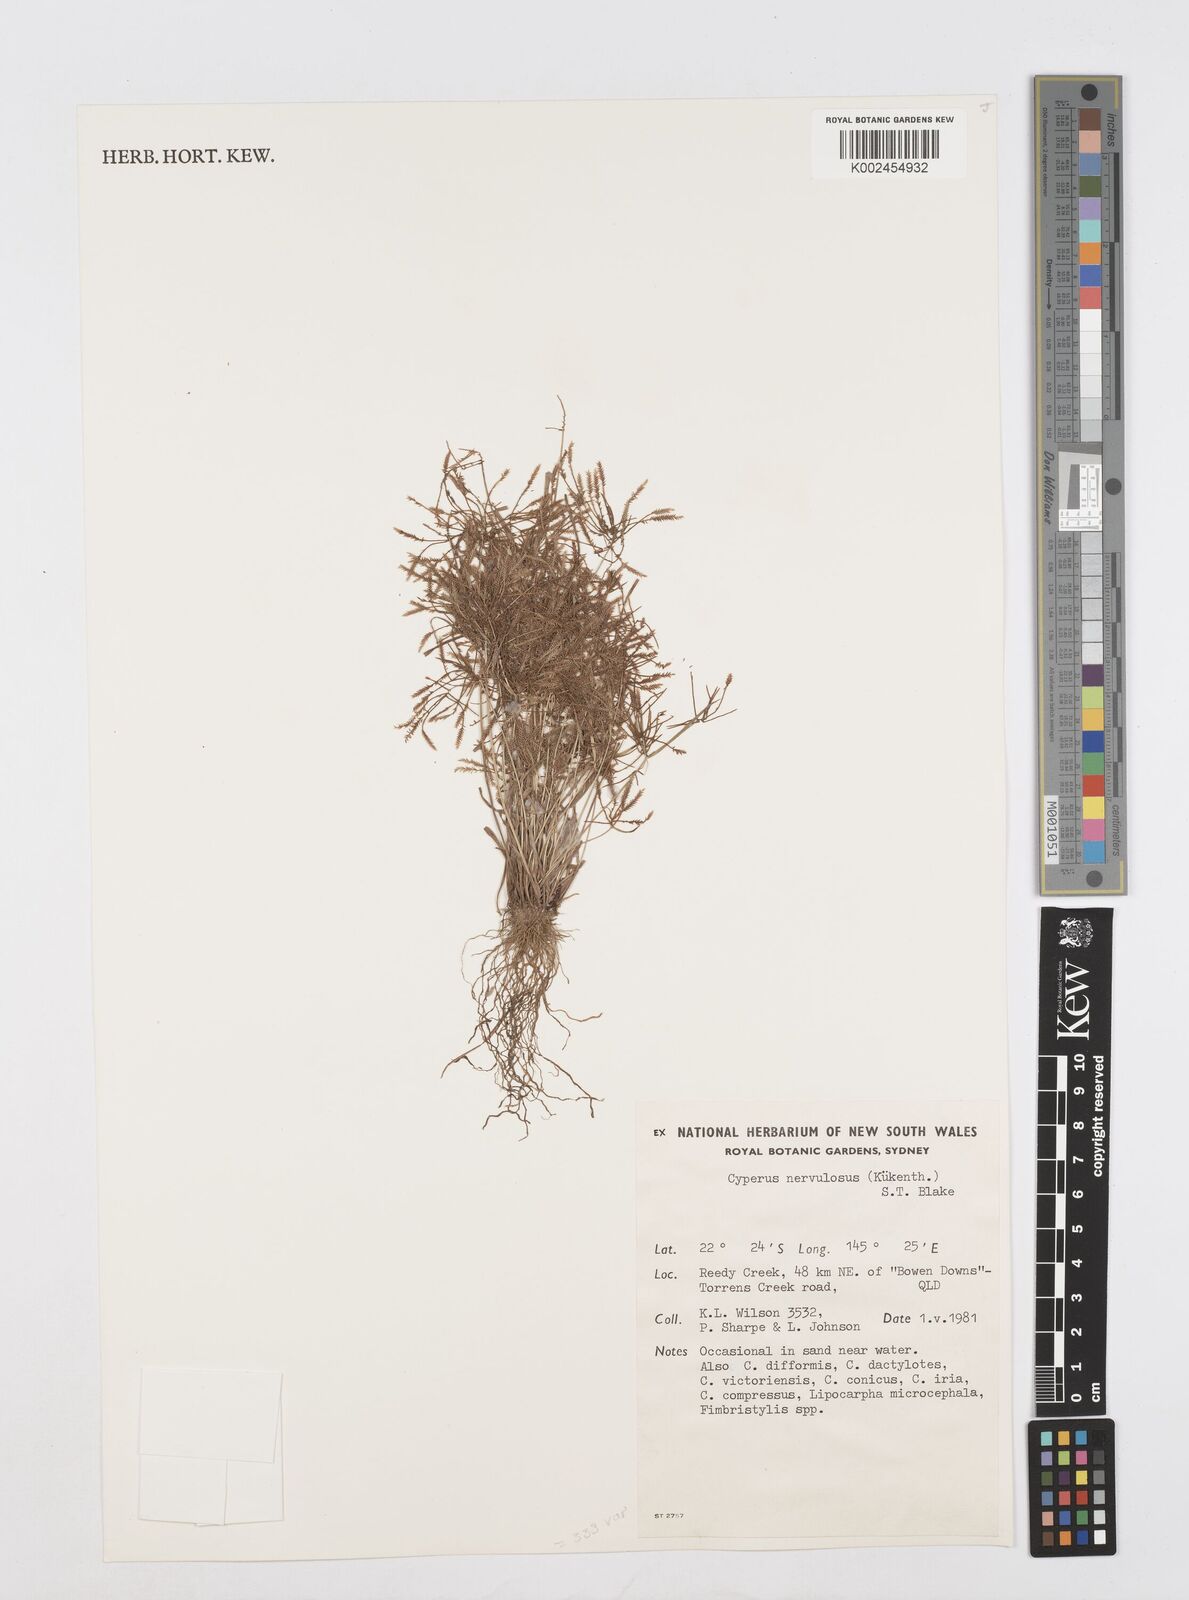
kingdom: Plantae
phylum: Tracheophyta
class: Liliopsida
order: Poales
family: Cyperaceae
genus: Cyperus
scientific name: Cyperus nervulosus
